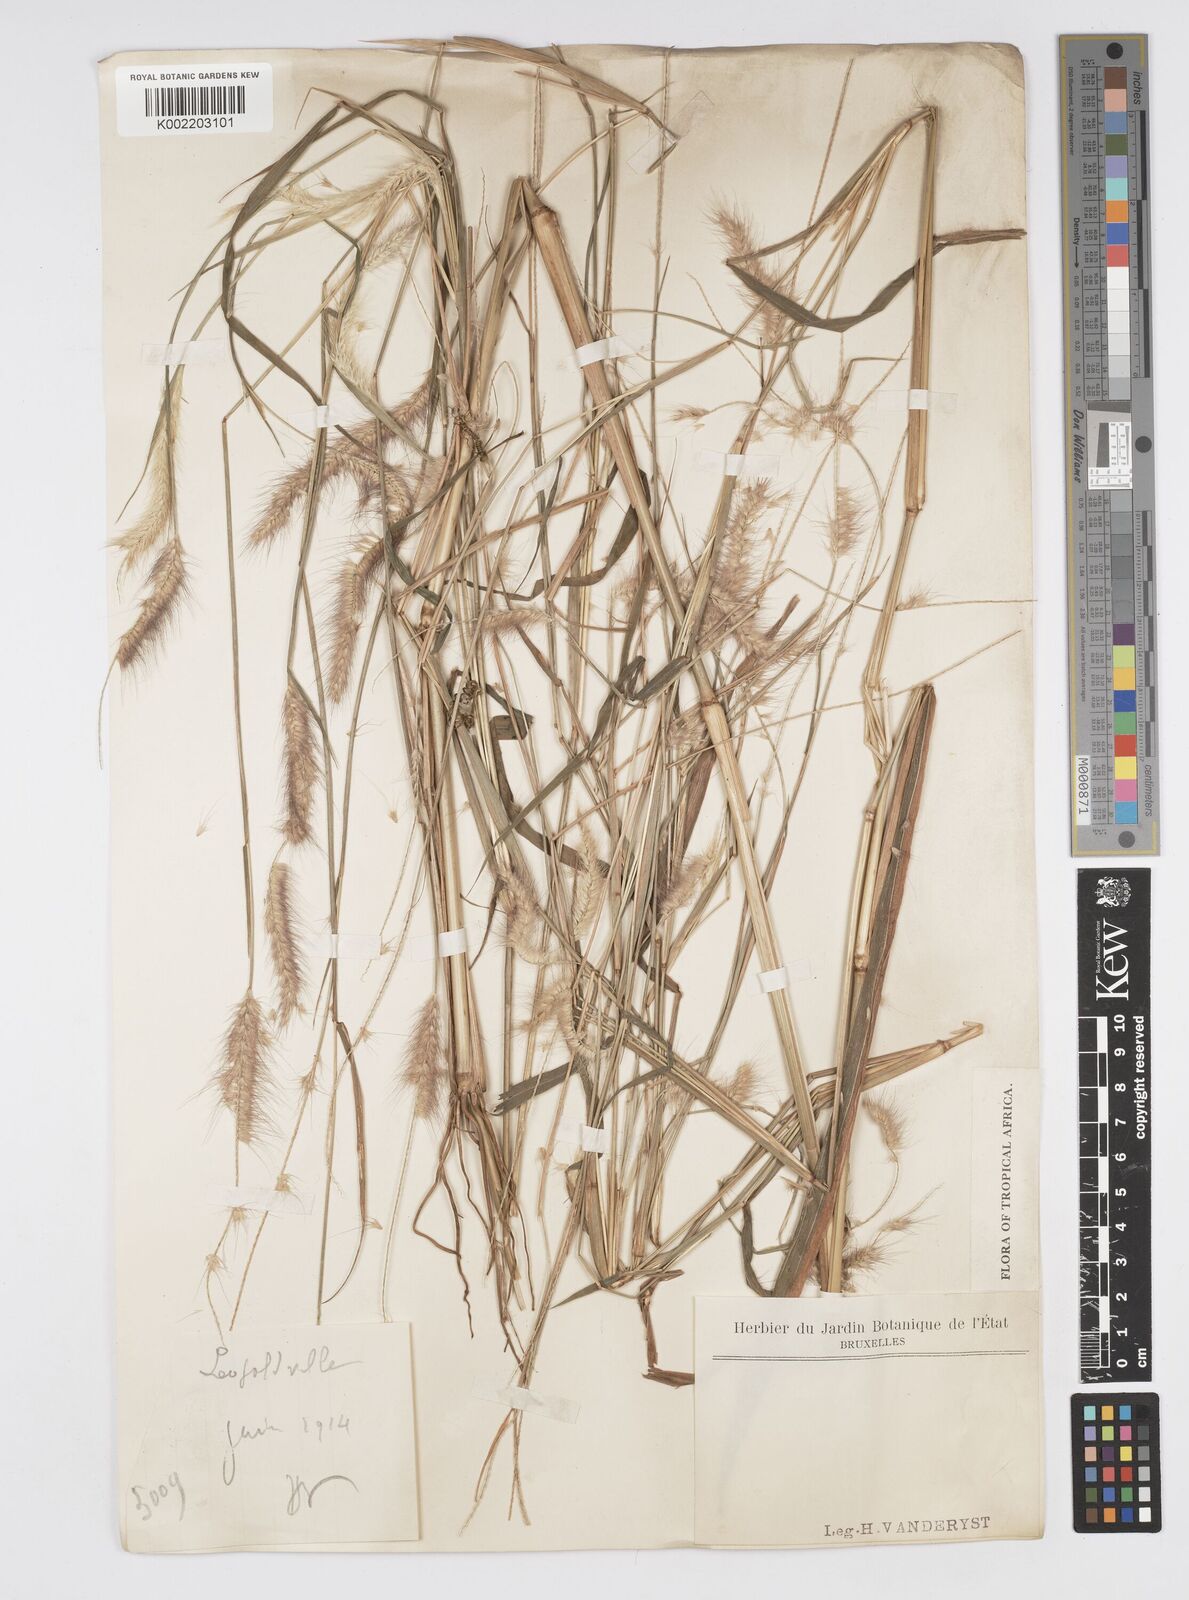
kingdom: Plantae
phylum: Tracheophyta
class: Liliopsida
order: Poales
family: Poaceae
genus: Setaria
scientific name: Setaria parviflora
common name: Knotroot bristle-grass
